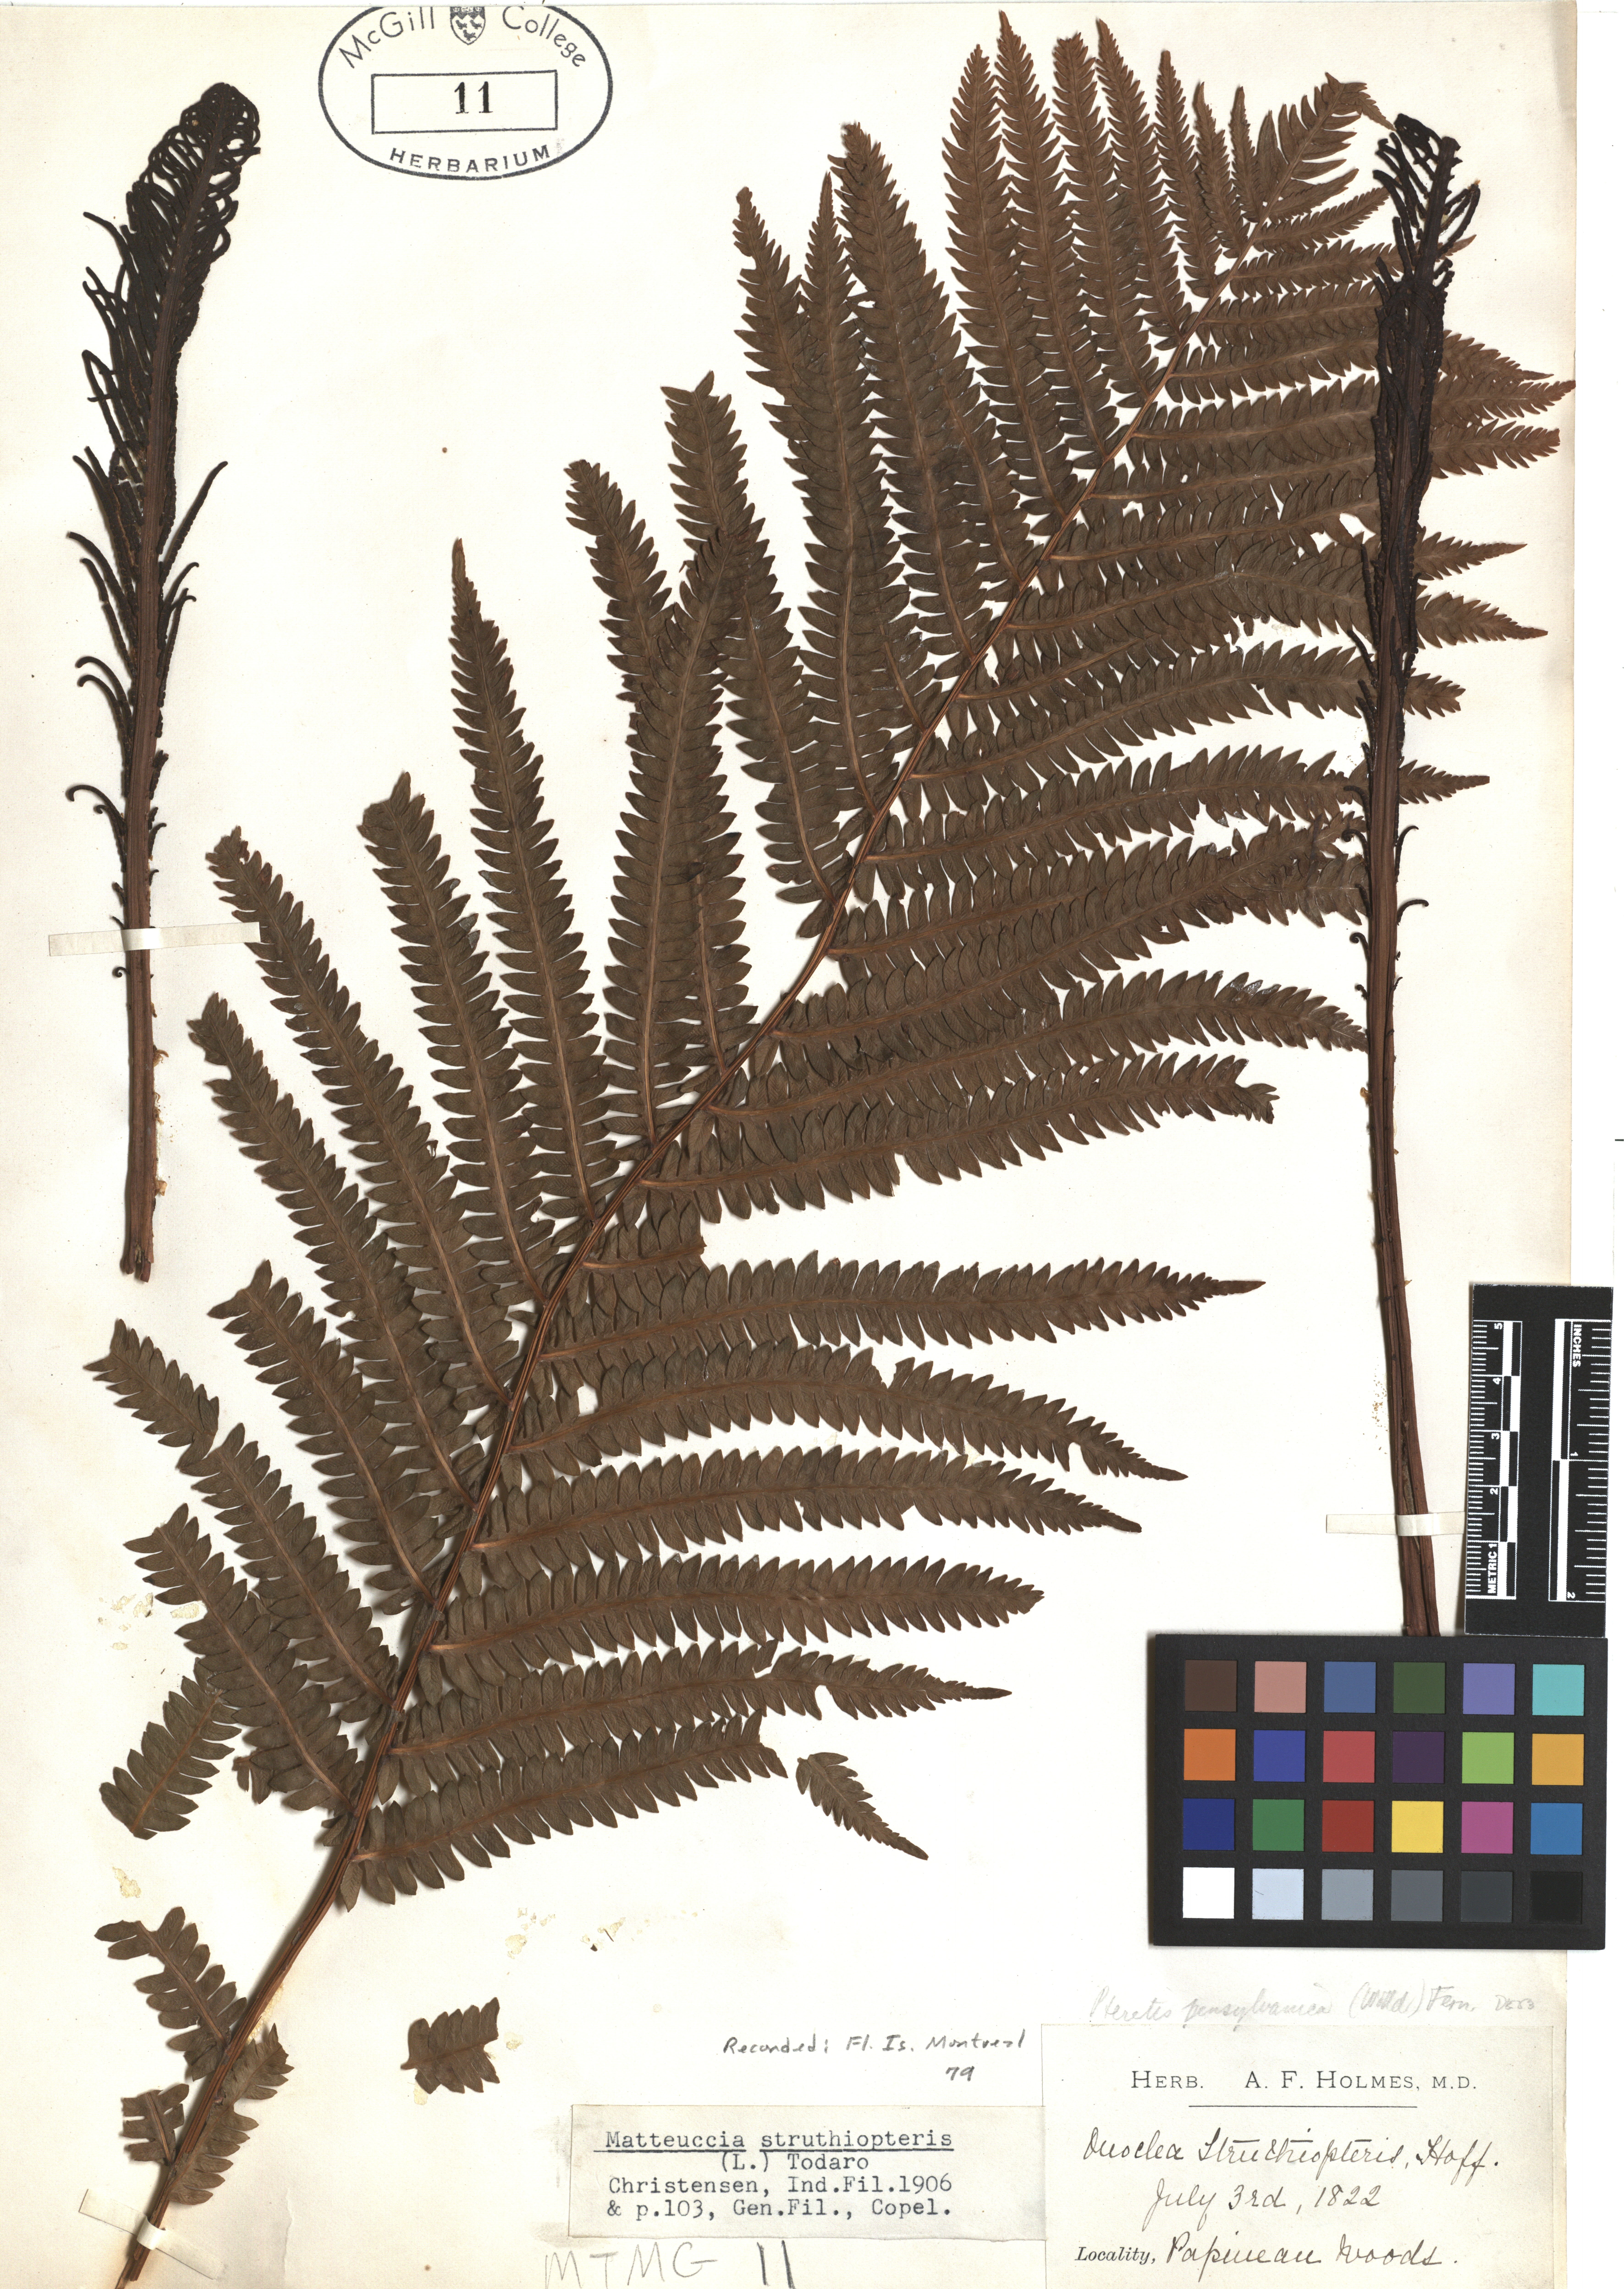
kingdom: Plantae
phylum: Tracheophyta
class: Polypodiopsida
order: Polypodiales
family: Onocleaceae
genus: Matteuccia
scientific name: Matteuccia struthiopteris
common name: Ostrich fern
